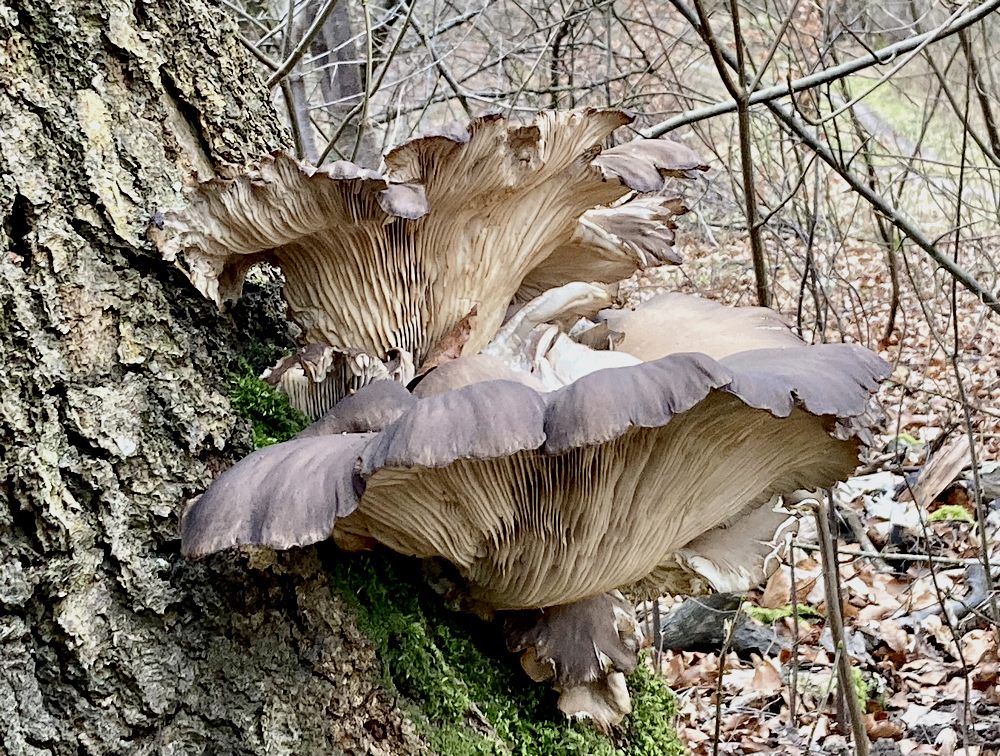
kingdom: Fungi
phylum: Basidiomycota
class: Agaricomycetes
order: Agaricales
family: Pleurotaceae
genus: Pleurotus
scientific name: Pleurotus ostreatus
